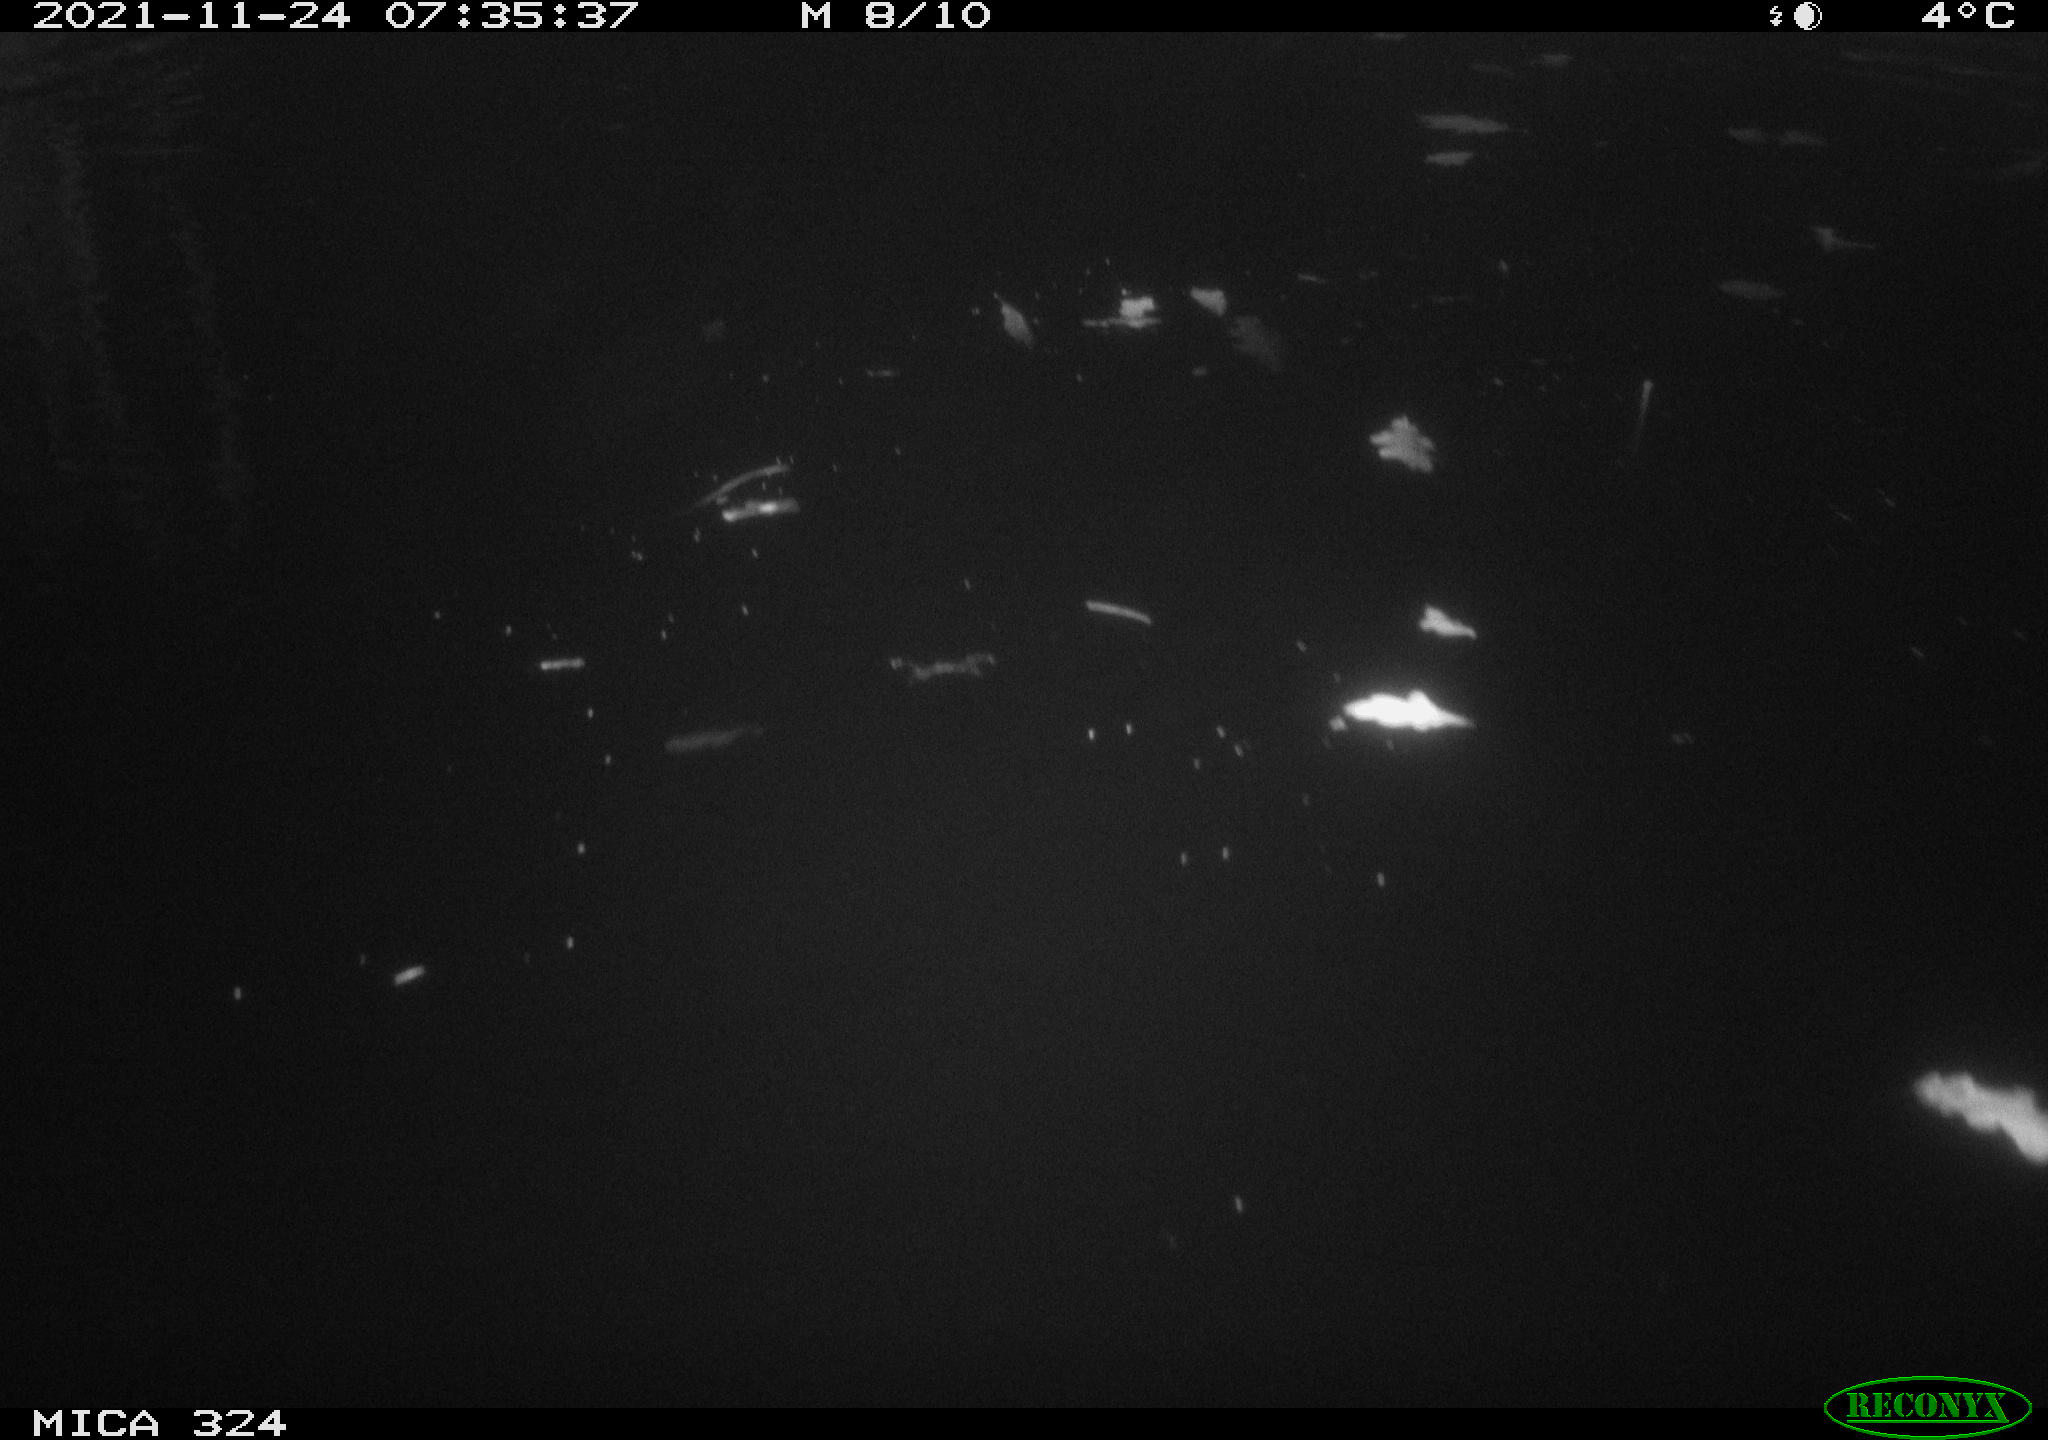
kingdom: Animalia
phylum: Chordata
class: Mammalia
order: Rodentia
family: Cricetidae
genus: Ondatra
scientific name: Ondatra zibethicus
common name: Muskrat
